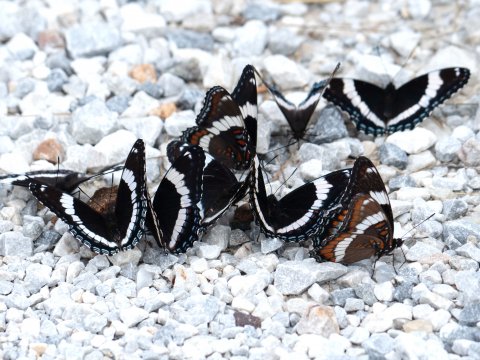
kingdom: Animalia
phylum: Arthropoda
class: Insecta
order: Lepidoptera
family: Nymphalidae
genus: Limenitis
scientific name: Limenitis arthemis
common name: Red-spotted Admiral
